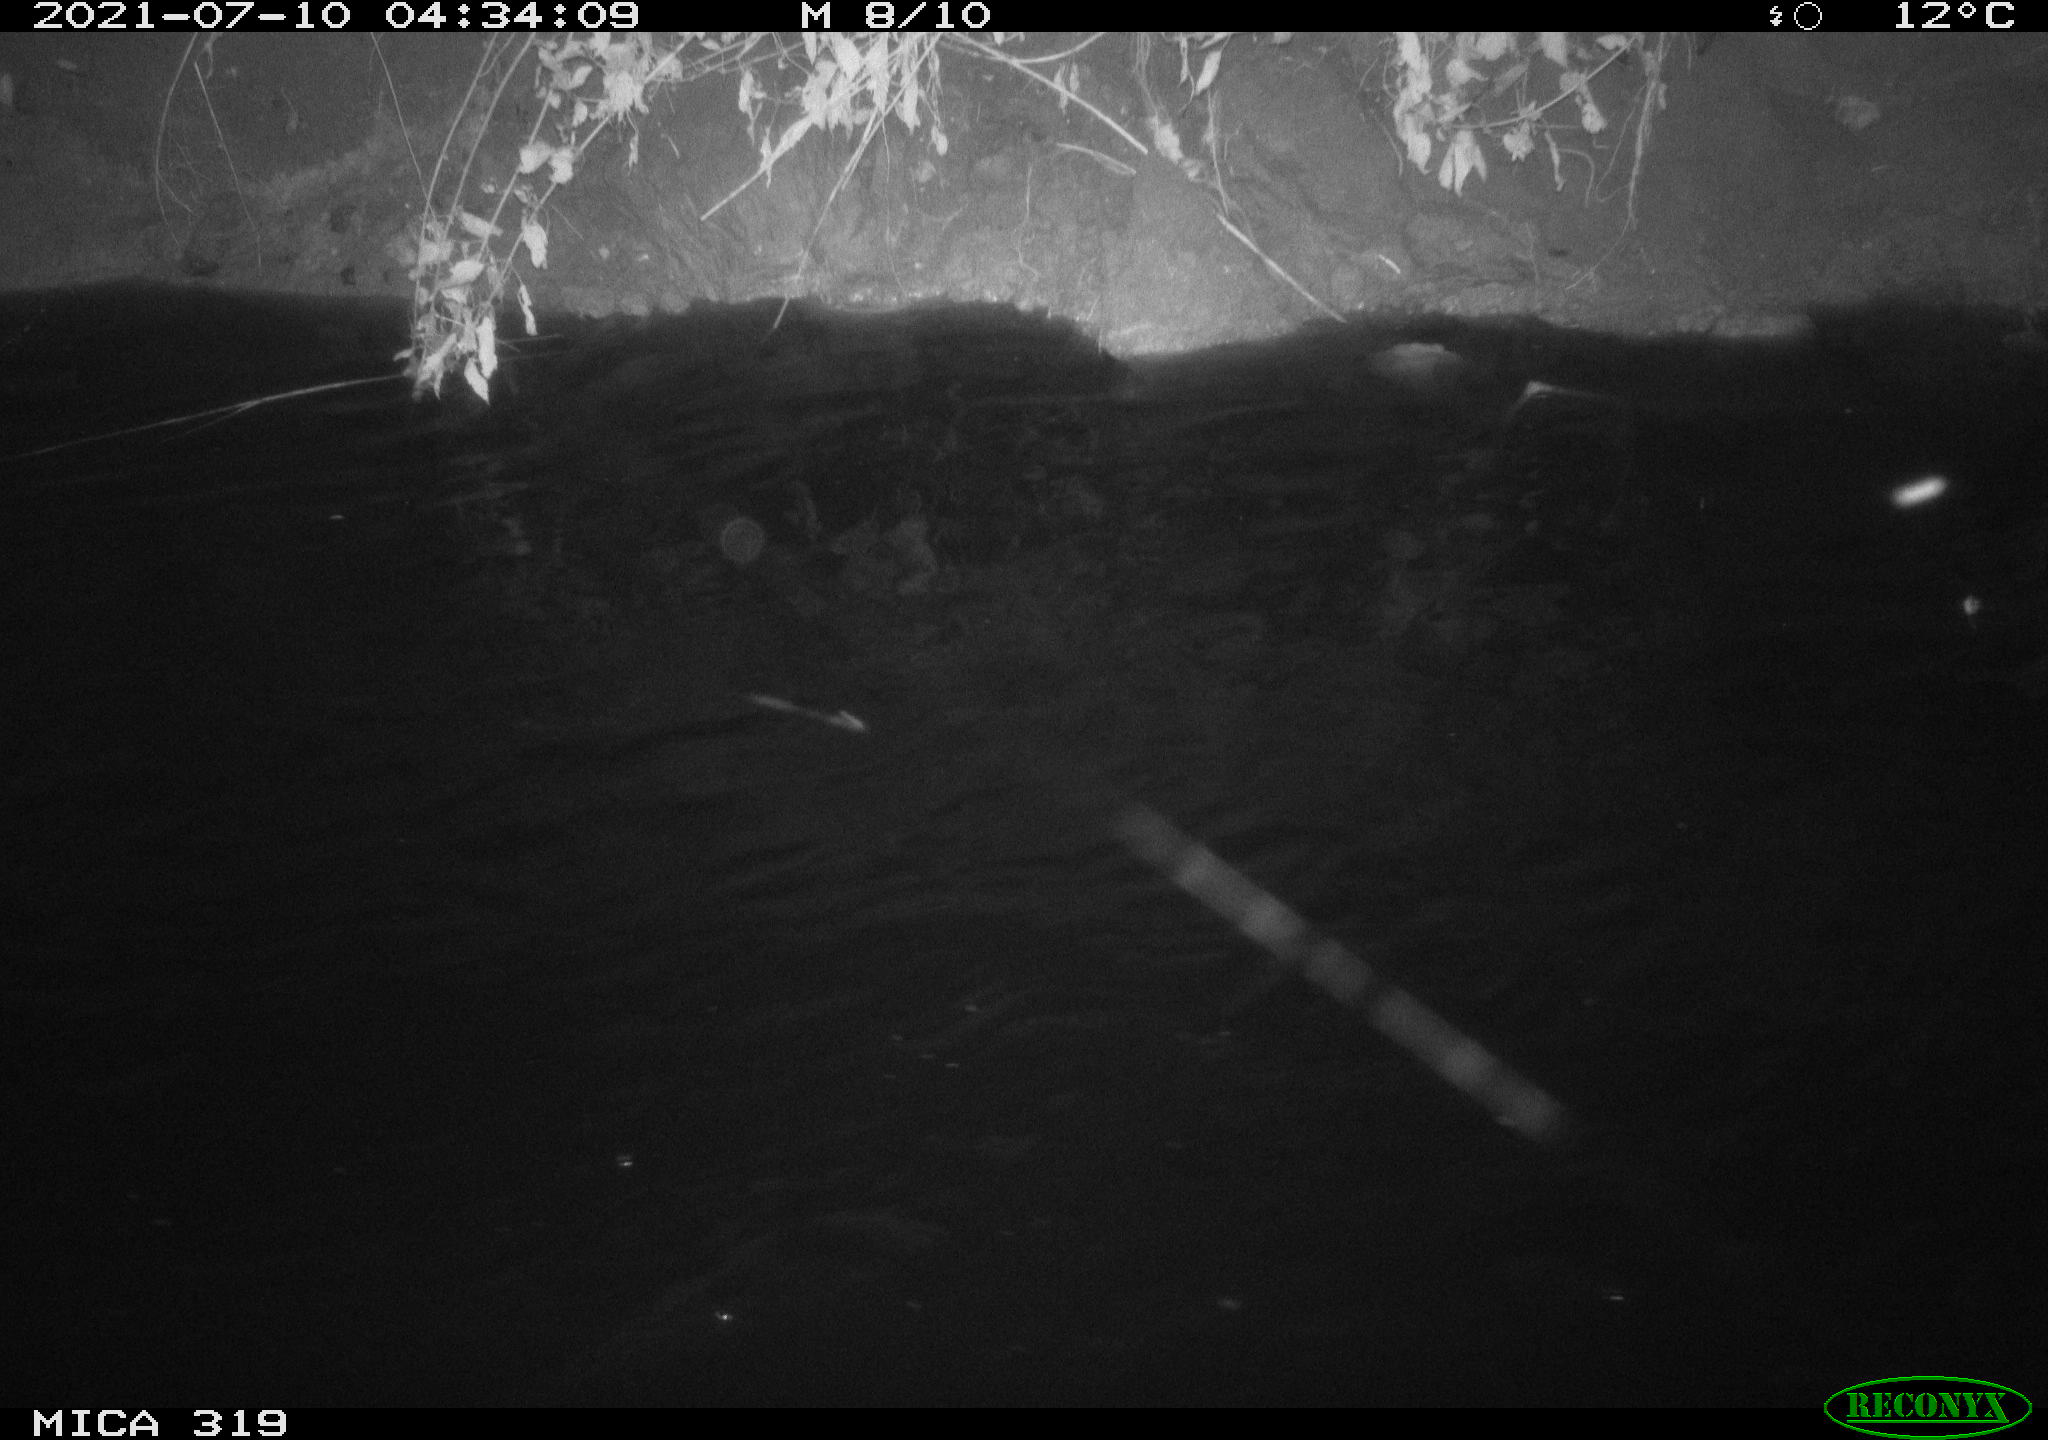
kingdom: Animalia
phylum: Chordata
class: Aves
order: Anseriformes
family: Anatidae
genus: Anas
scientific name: Anas platyrhynchos
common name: Mallard
